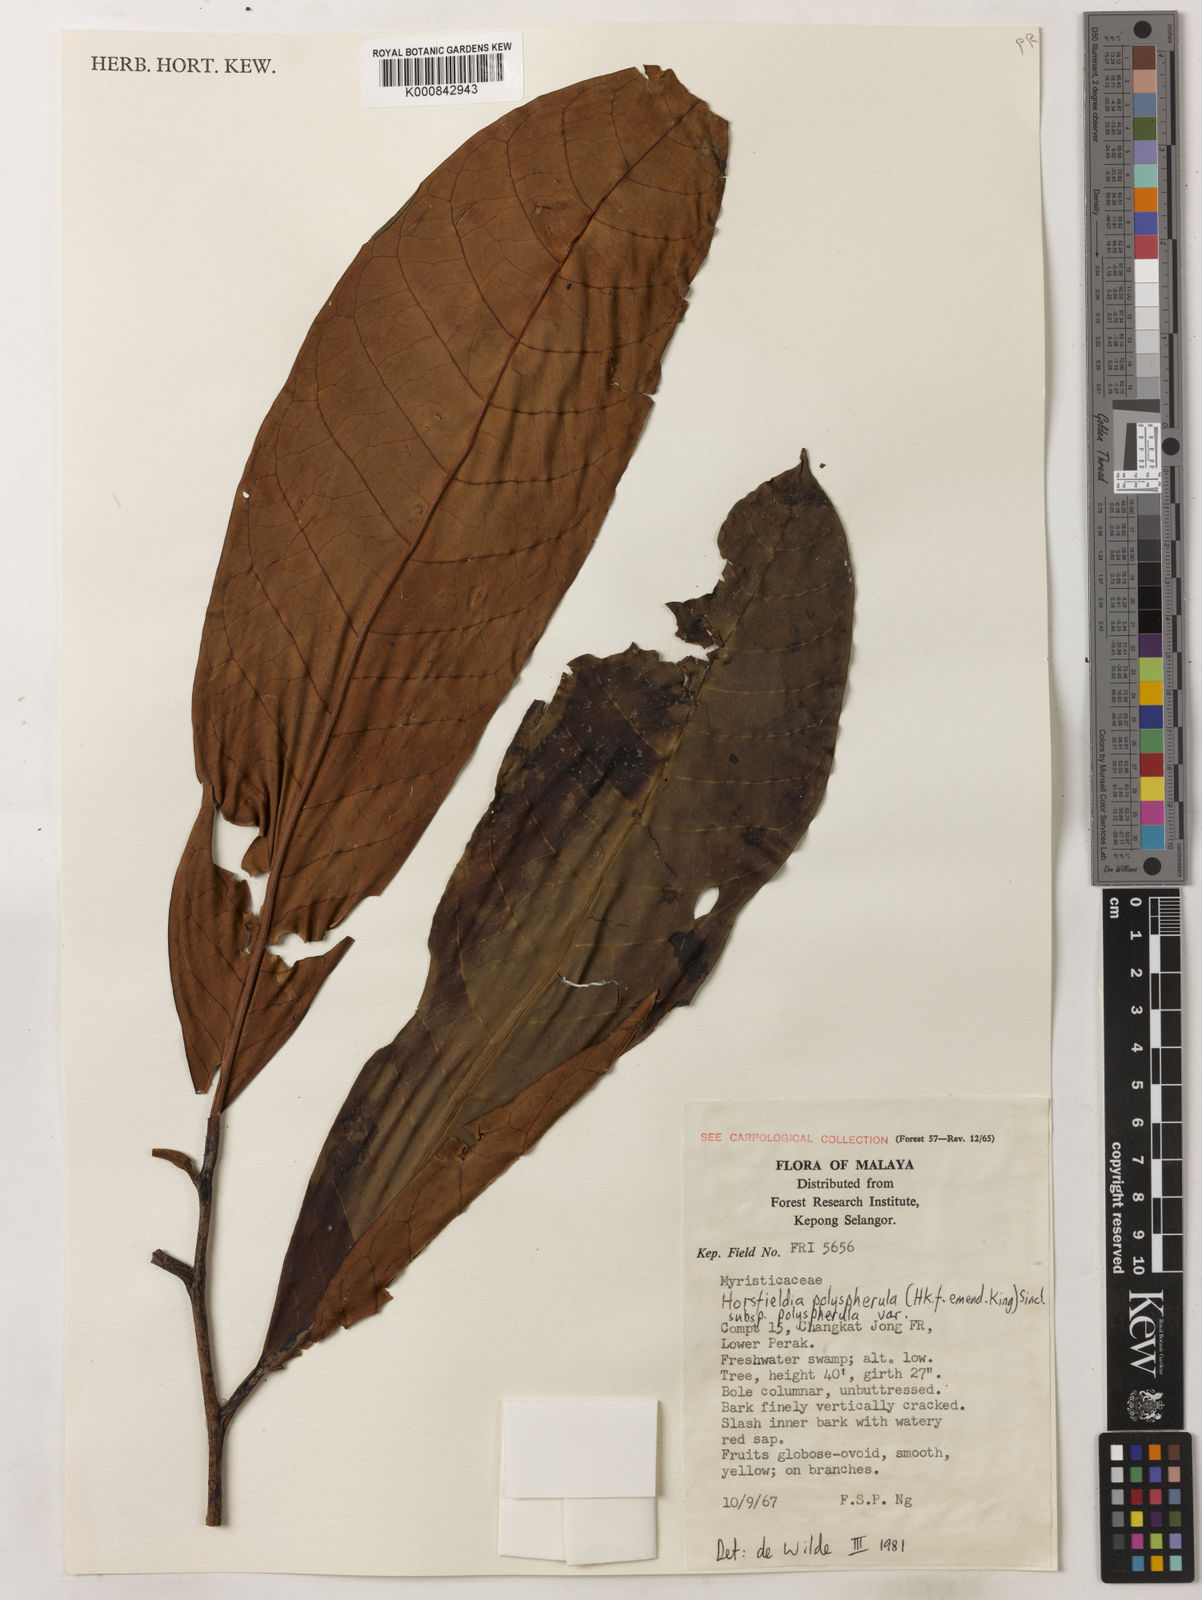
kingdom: Plantae
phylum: Tracheophyta
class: Magnoliopsida
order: Magnoliales
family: Myristicaceae
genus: Horsfieldia
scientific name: Horsfieldia
